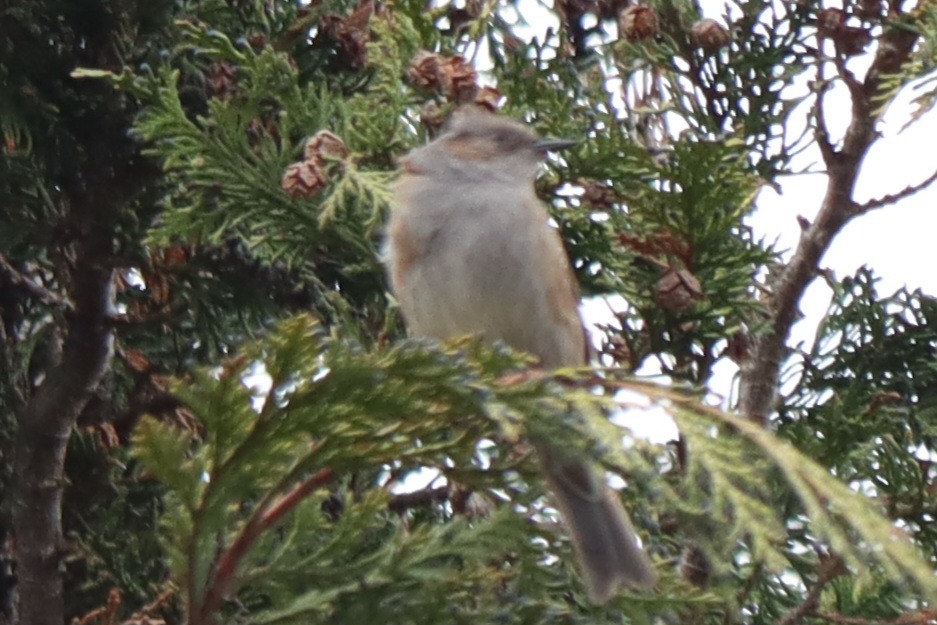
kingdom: Animalia
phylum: Chordata
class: Aves
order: Passeriformes
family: Prunellidae
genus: Prunella
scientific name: Prunella modularis
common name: Jernspurv
